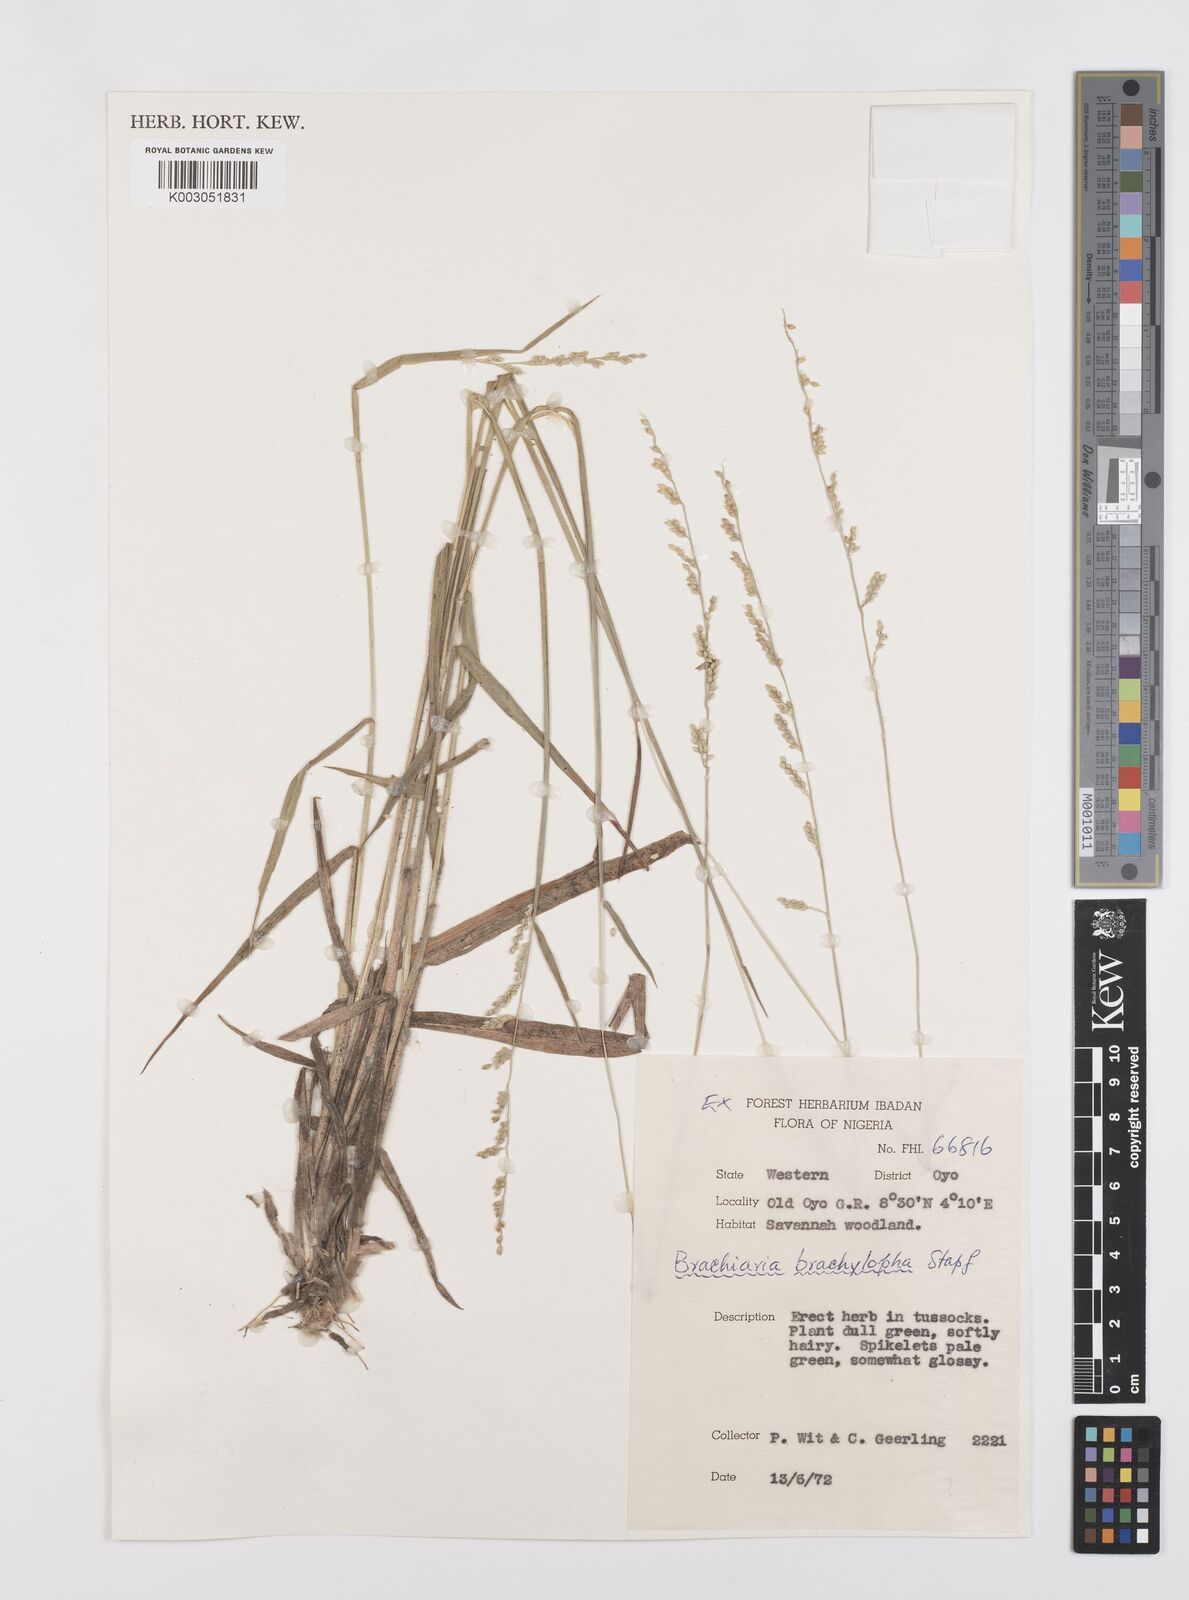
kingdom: Plantae
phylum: Tracheophyta
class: Liliopsida
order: Poales
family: Poaceae
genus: Urochloa
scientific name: Urochloa serrata
